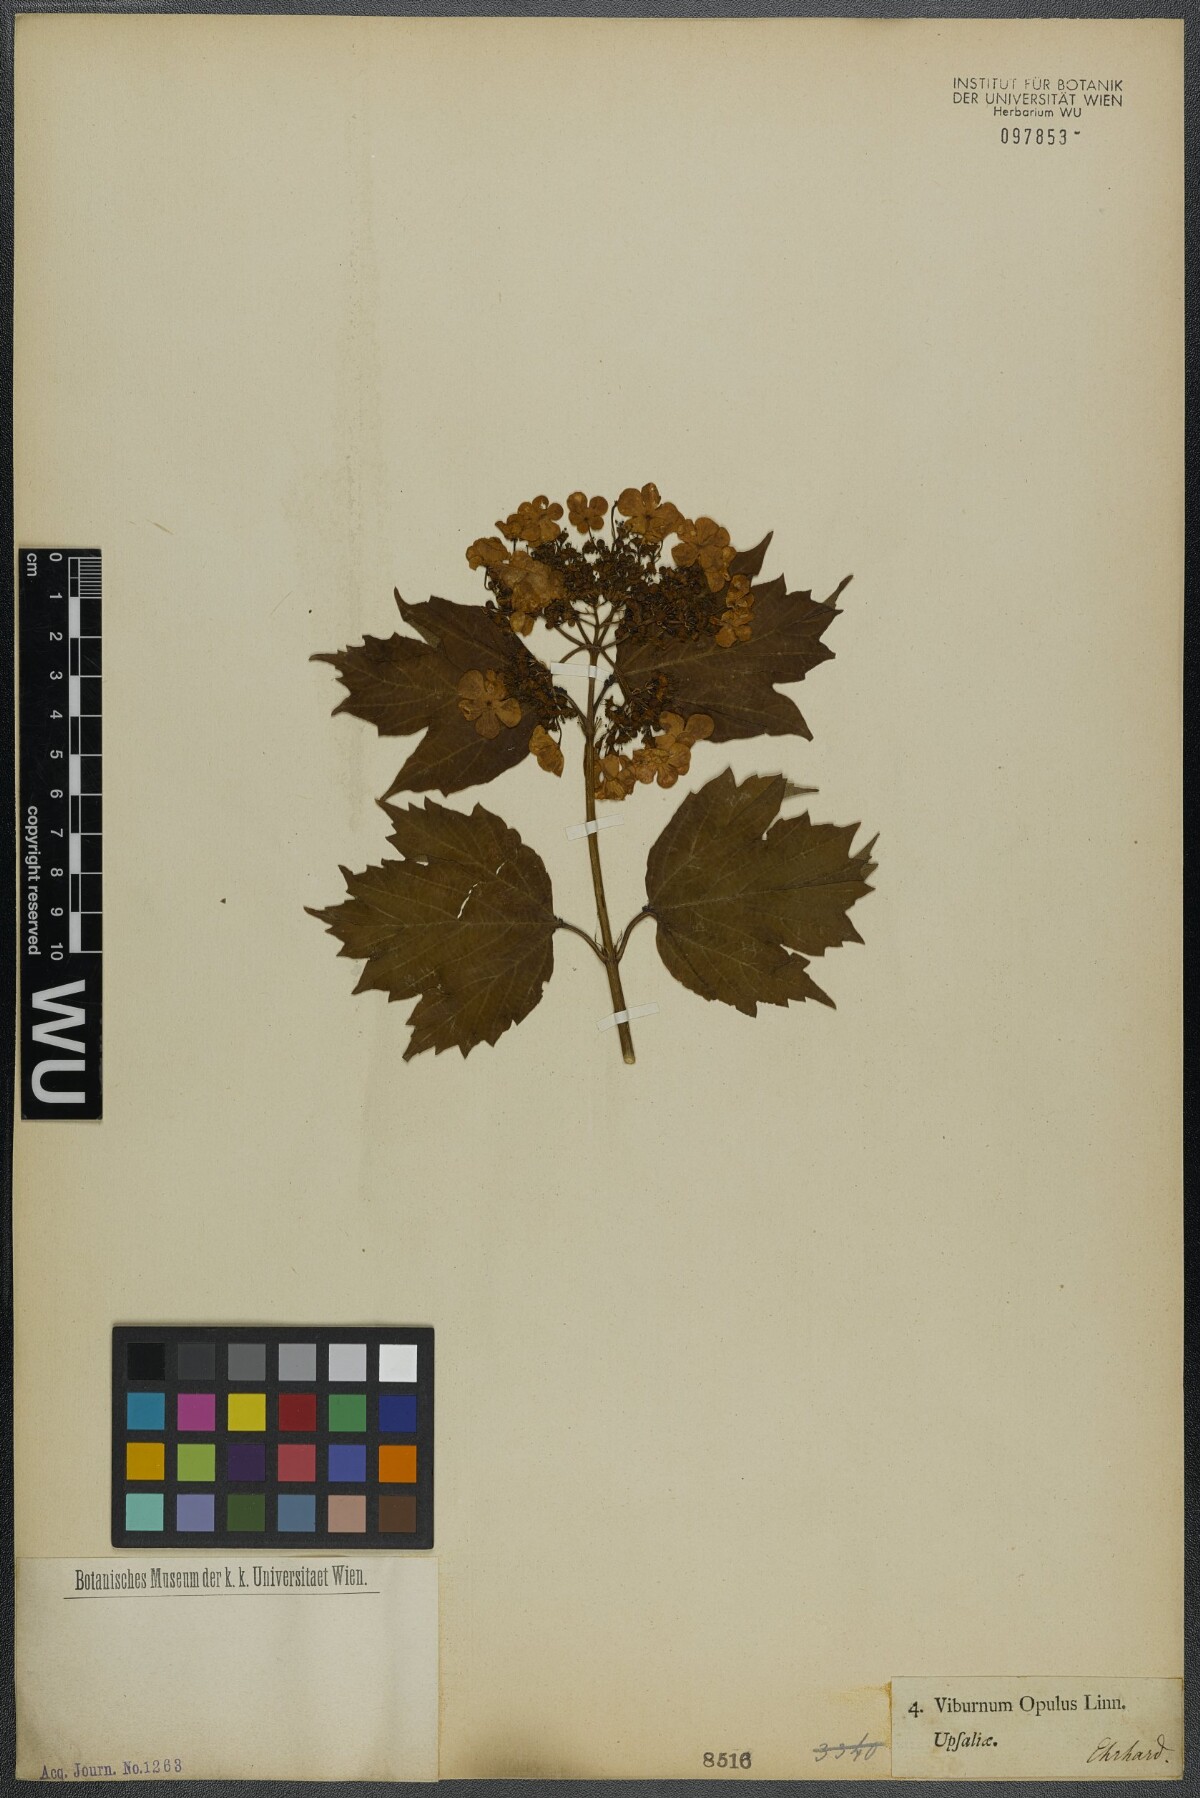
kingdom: Plantae
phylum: Tracheophyta
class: Magnoliopsida
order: Dipsacales
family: Viburnaceae
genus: Viburnum
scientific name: Viburnum opulus
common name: Guelder-rose
